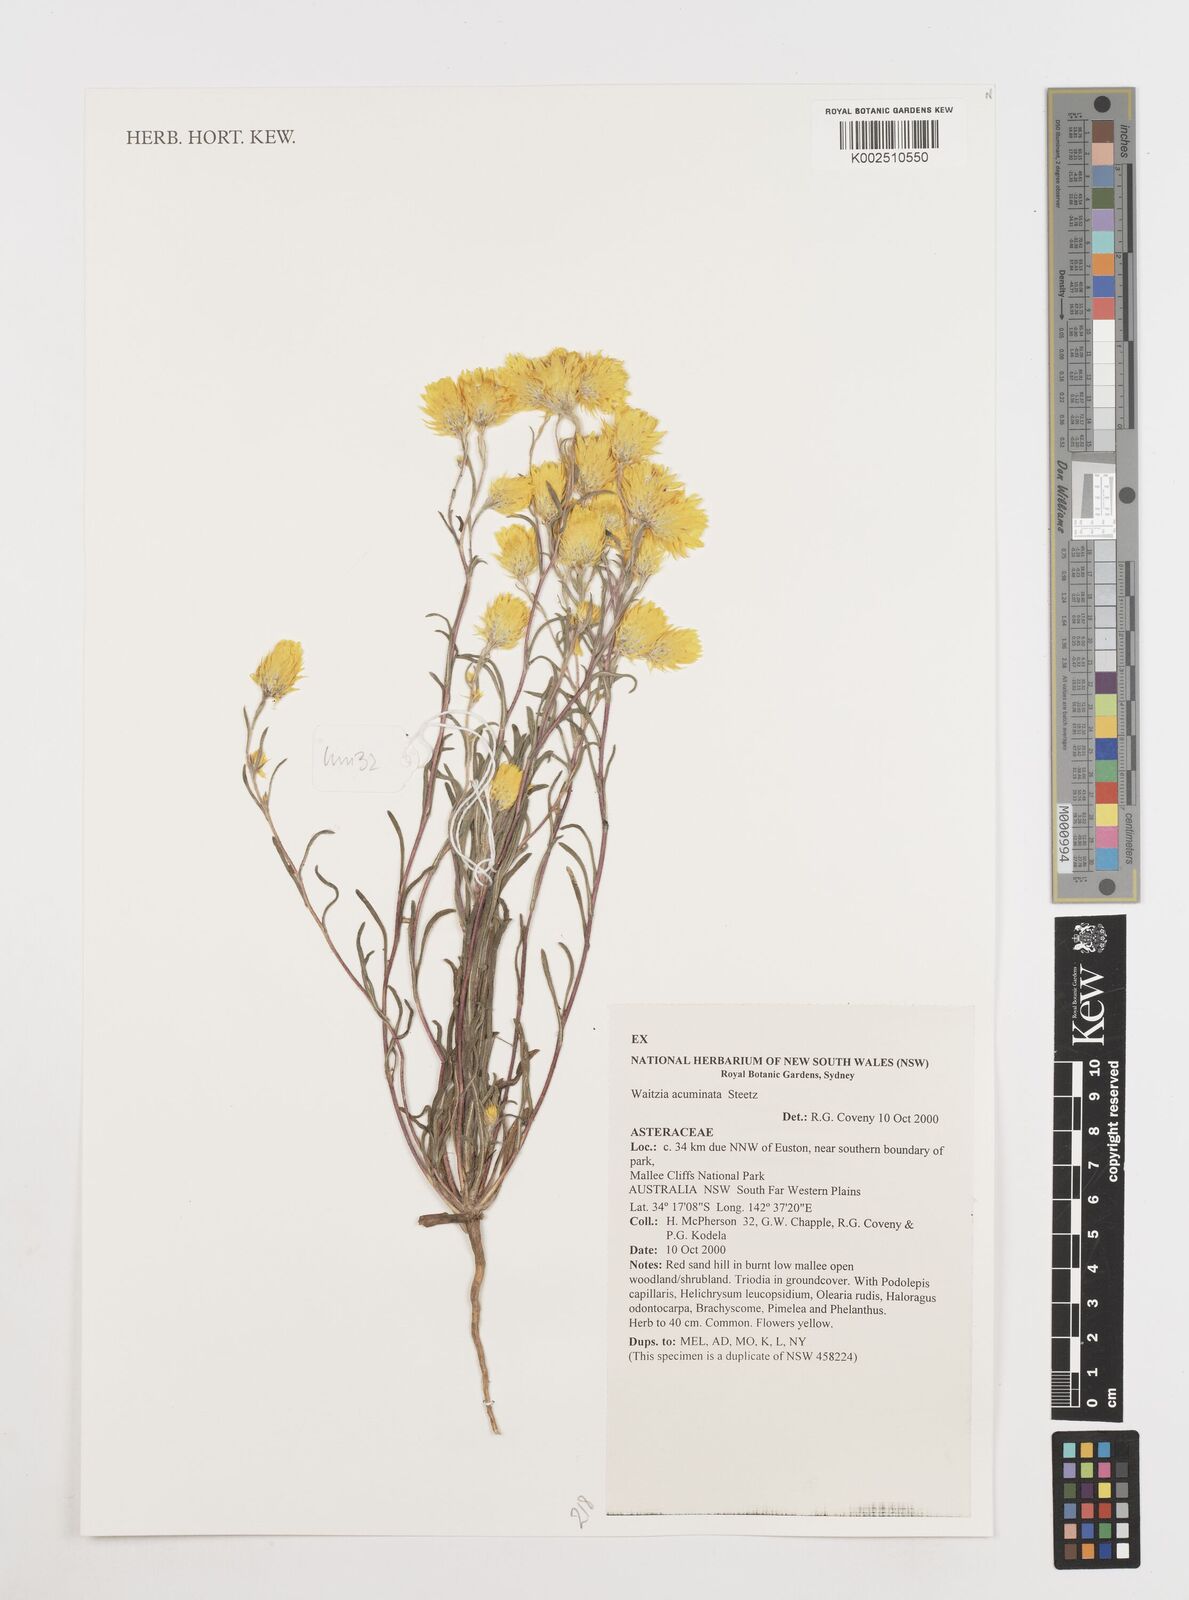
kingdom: Plantae
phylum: Tracheophyta
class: Magnoliopsida
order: Asterales
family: Asteraceae
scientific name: Asteraceae
